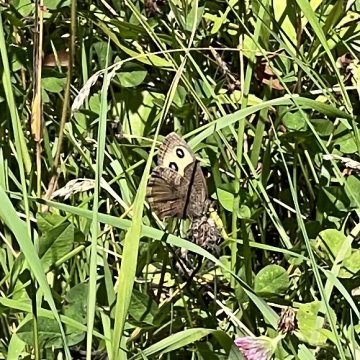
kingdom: Animalia
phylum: Arthropoda
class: Insecta
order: Lepidoptera
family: Nymphalidae
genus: Cercyonis
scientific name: Cercyonis pegala
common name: Common Wood-Nymph
